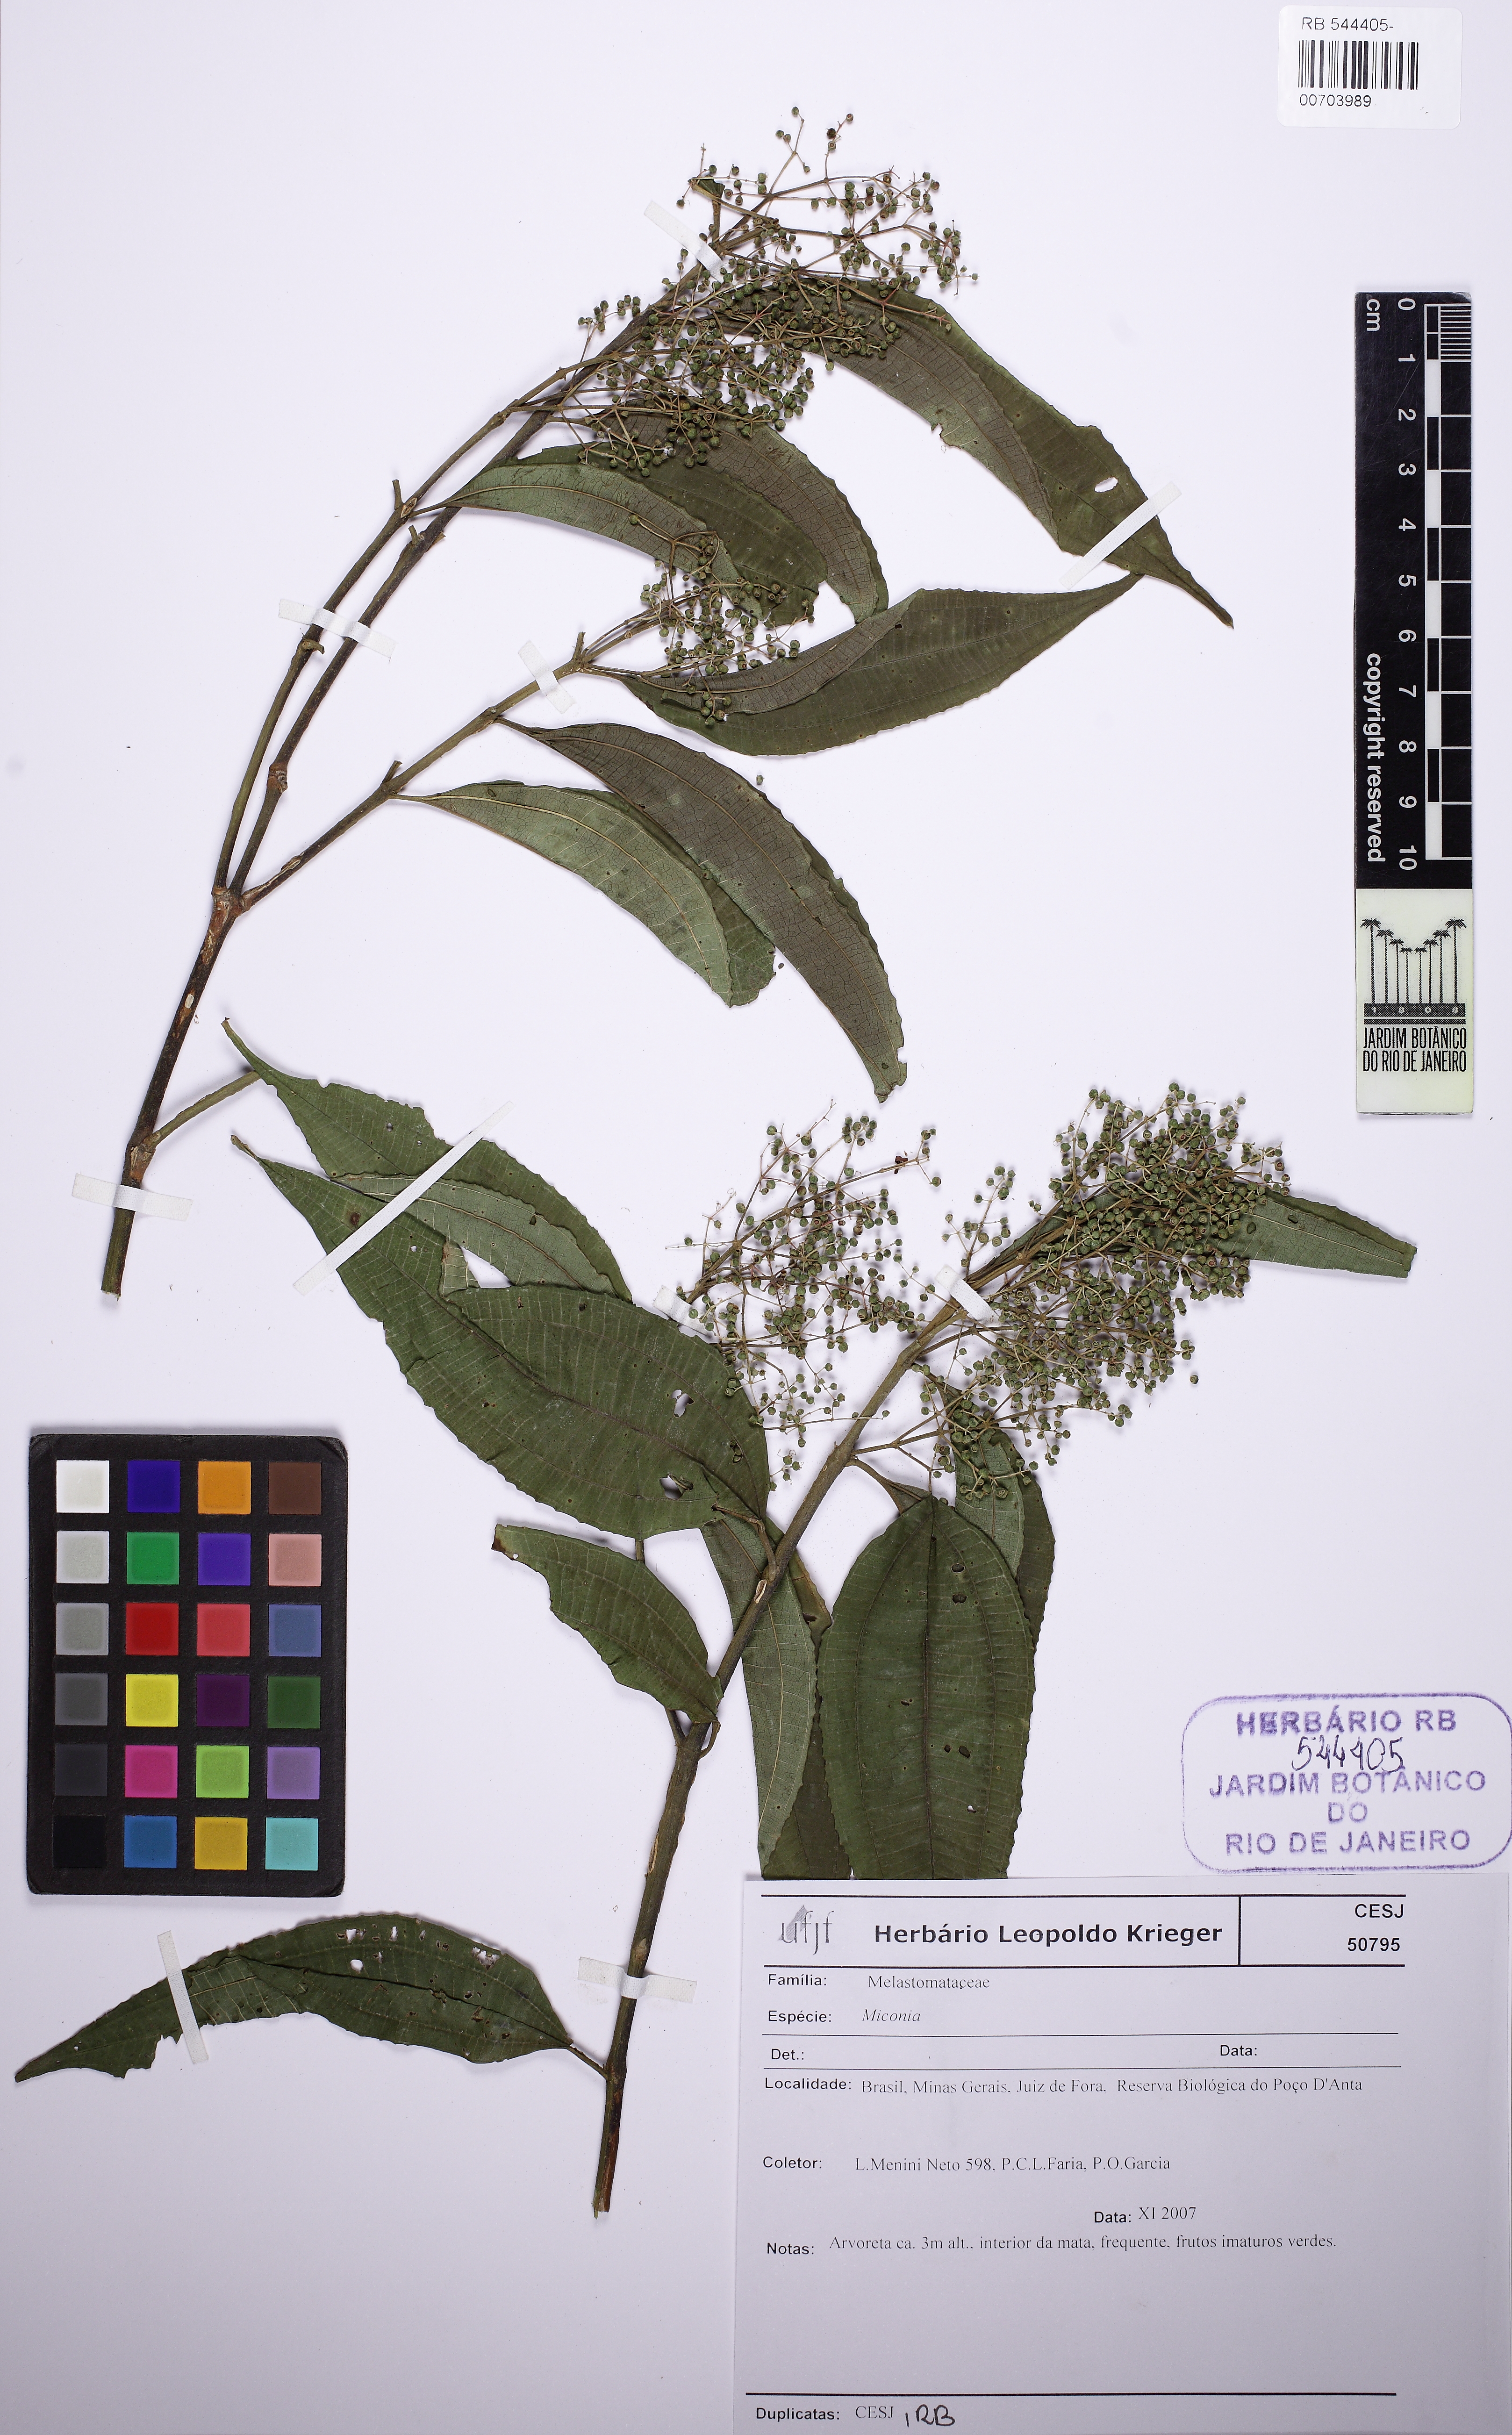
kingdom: Plantae
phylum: Tracheophyta
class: Magnoliopsida
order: Myrtales
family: Melastomataceae
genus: Miconia
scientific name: Miconia latecrenata
